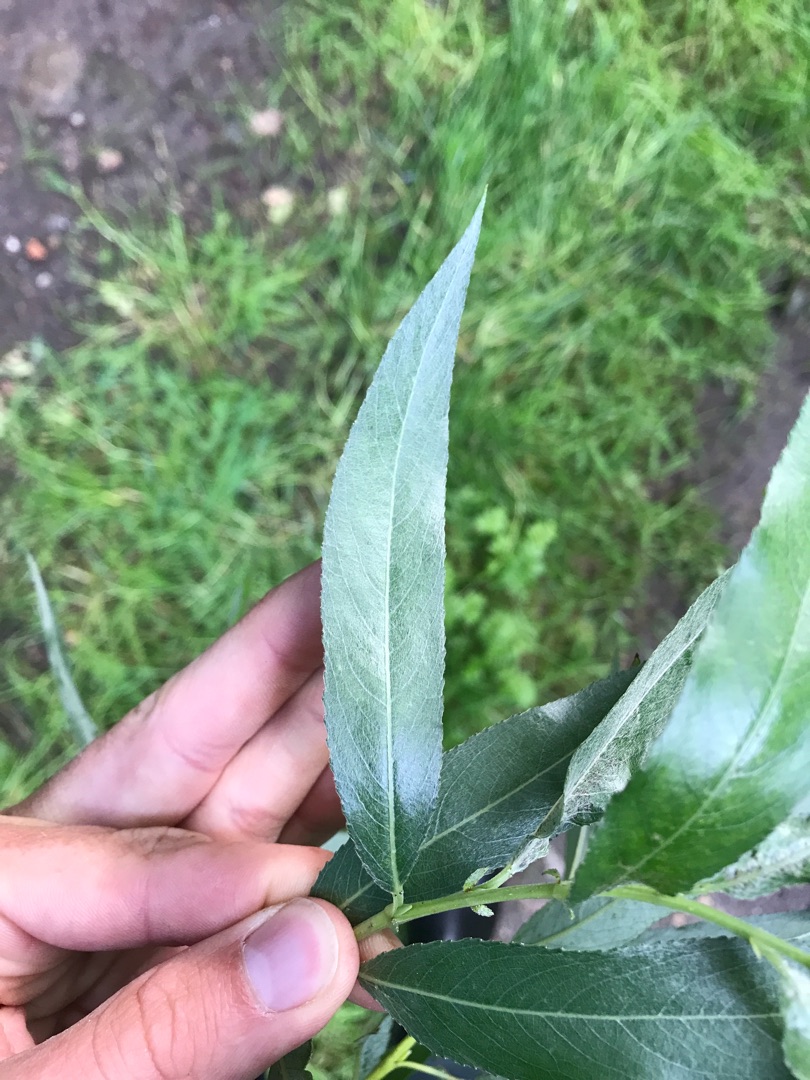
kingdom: Plantae
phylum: Tracheophyta
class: Magnoliopsida
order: Malpighiales
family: Salicaceae
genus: Salix
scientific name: Salix alba
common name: Hvid-pil
